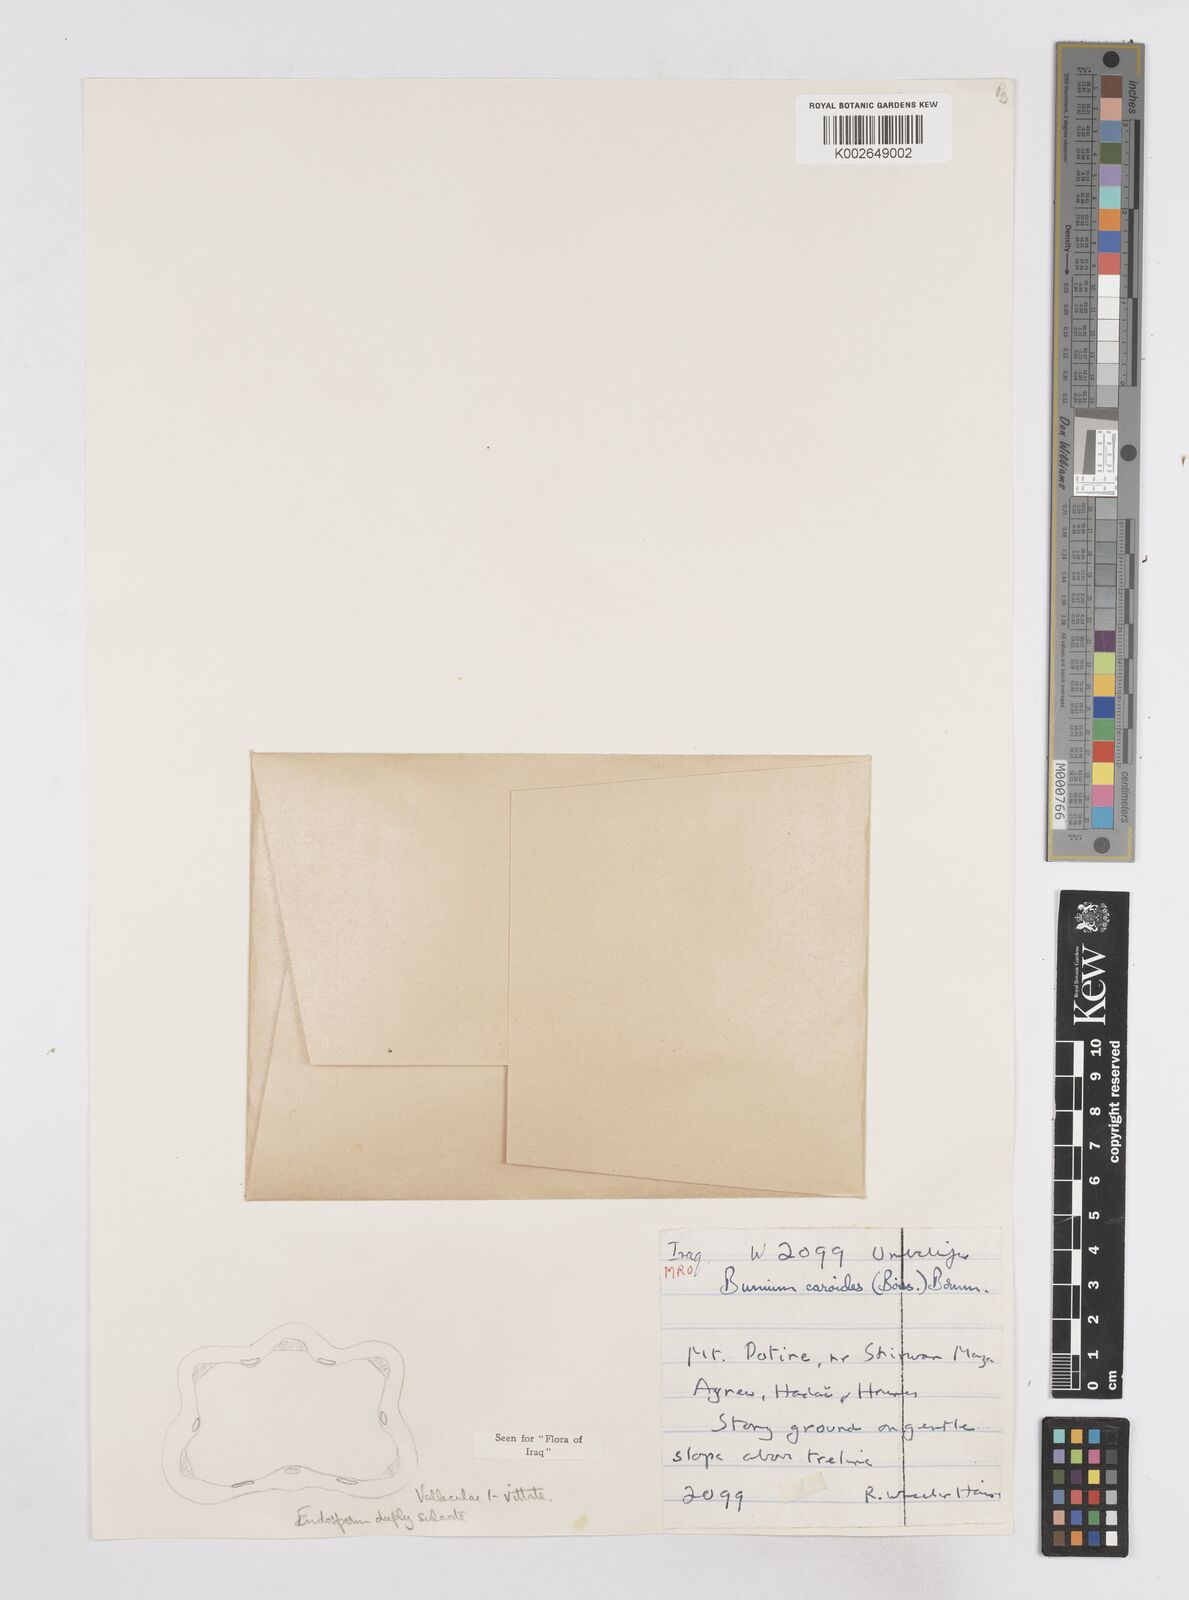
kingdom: Plantae
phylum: Tracheophyta
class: Magnoliopsida
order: Apiales
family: Apiaceae
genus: Elwendia
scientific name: Elwendia caroides
